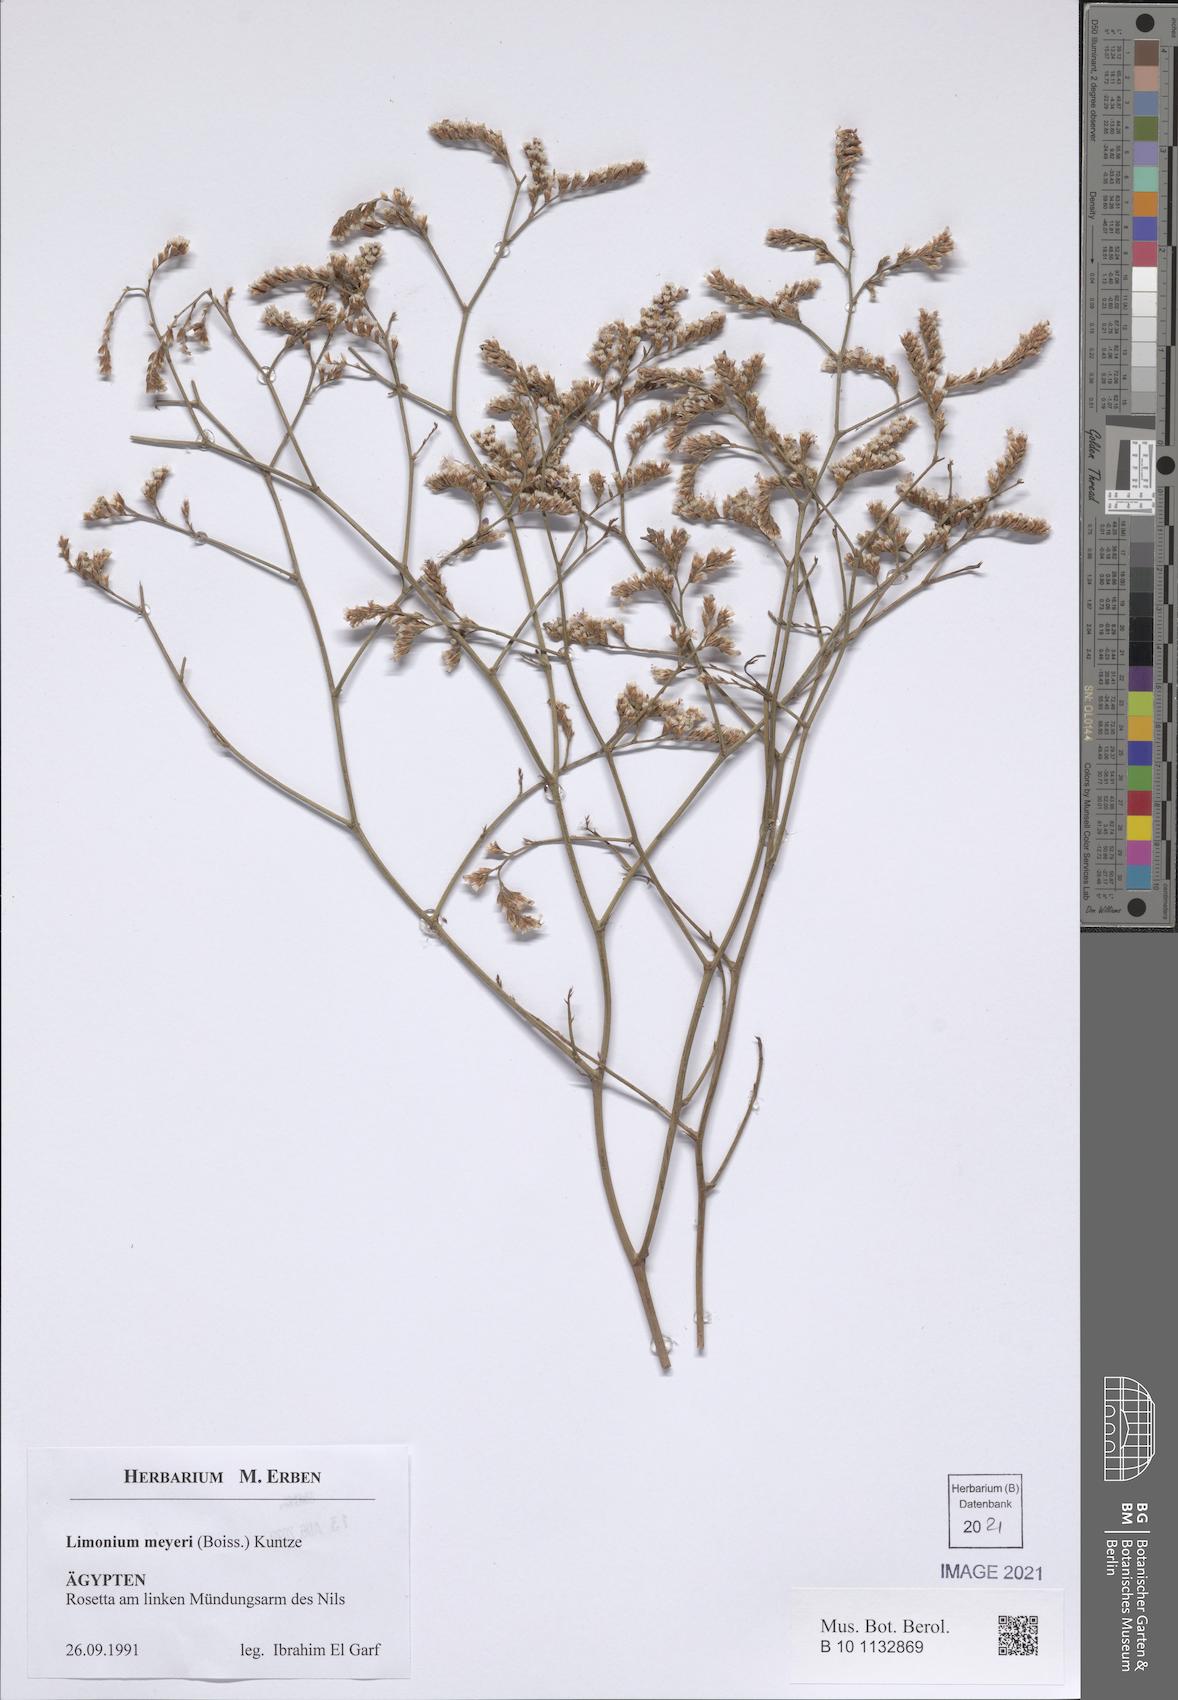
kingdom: Plantae
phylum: Tracheophyta
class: Magnoliopsida
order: Caryophyllales
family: Plumbaginaceae
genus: Limonium
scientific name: Limonium scoparium
